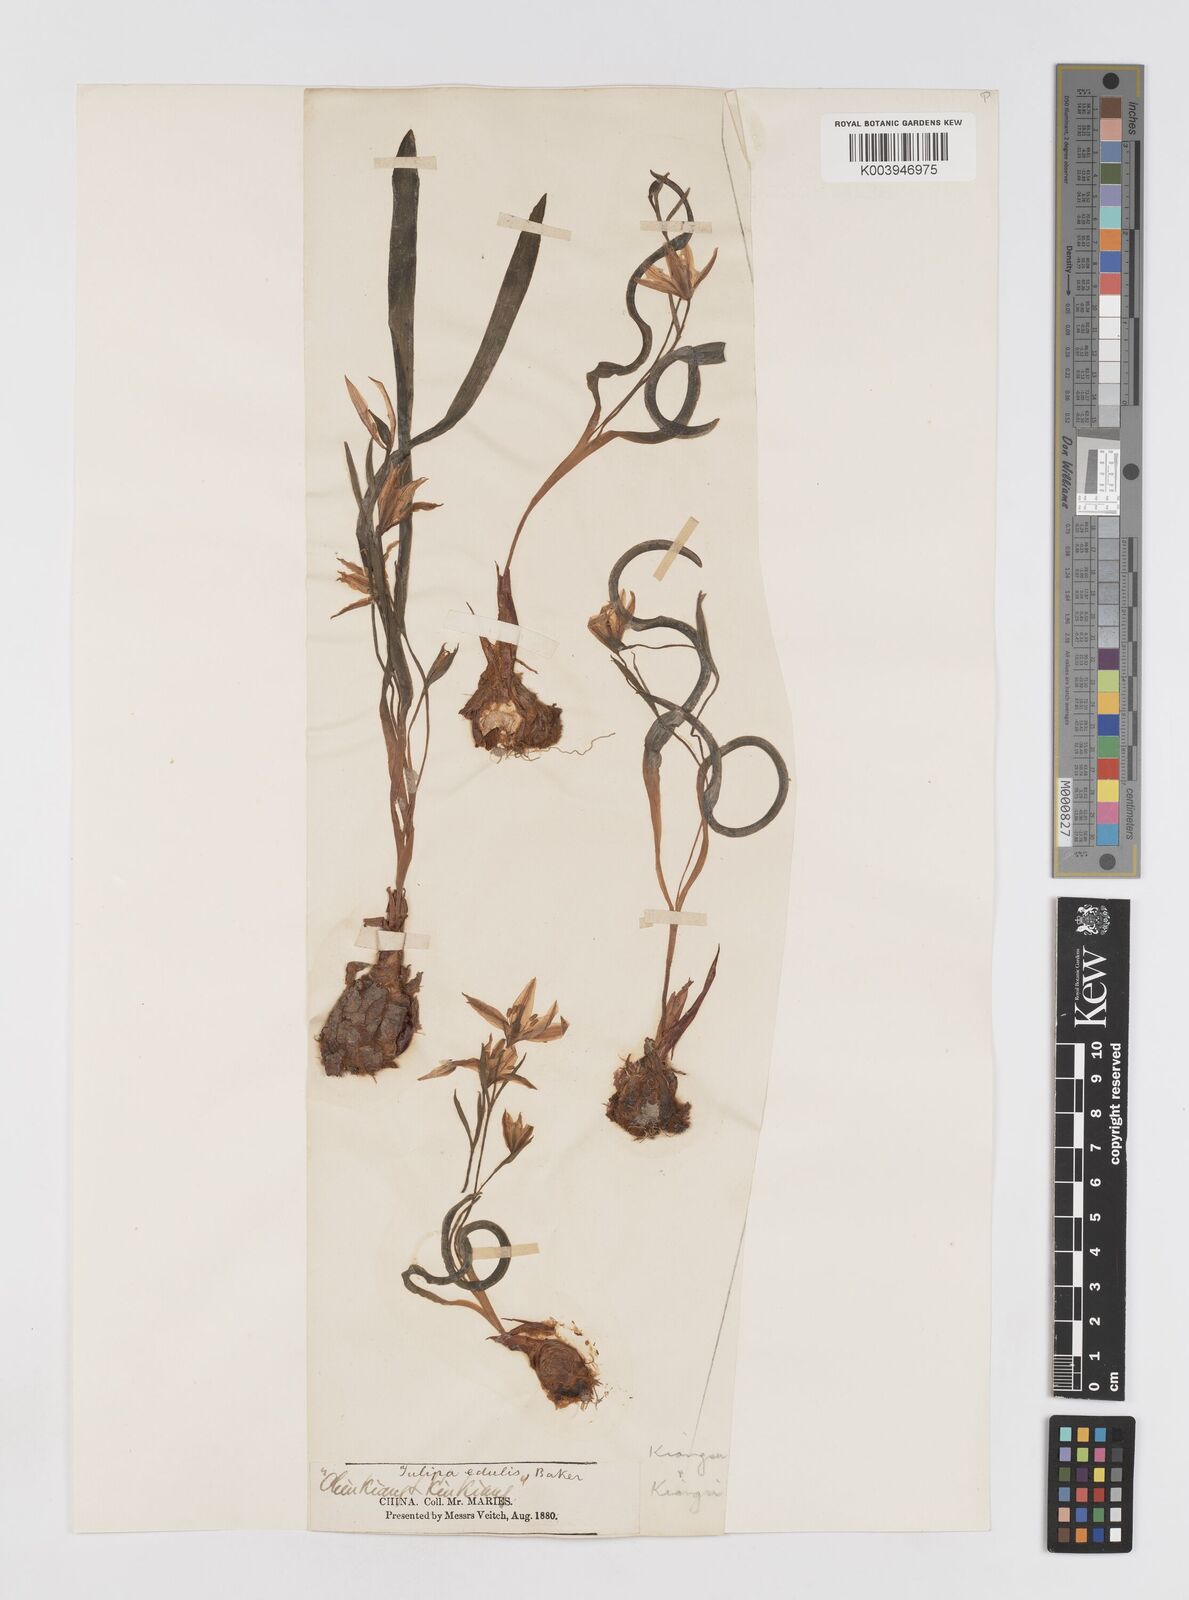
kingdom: Plantae
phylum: Tracheophyta
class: Liliopsida
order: Liliales
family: Liliaceae
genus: Amana
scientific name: Amana edulis
